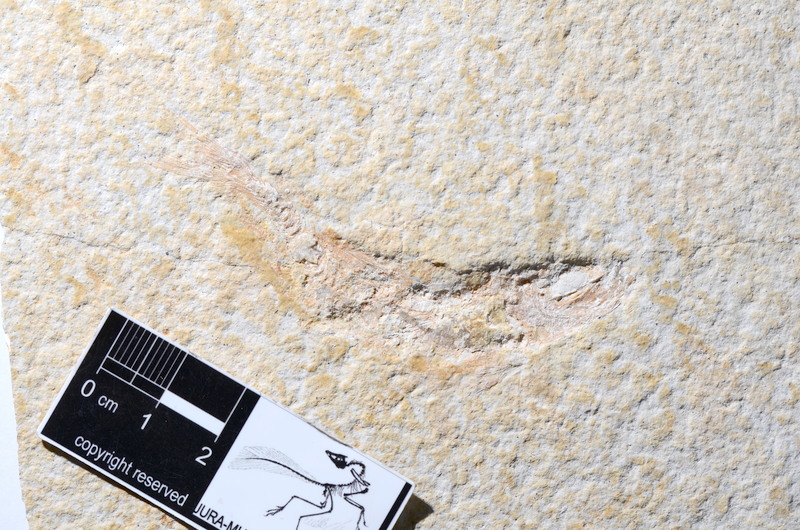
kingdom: Animalia
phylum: Chordata
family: Ascalaboidae
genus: Tharsis
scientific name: Tharsis dubius
